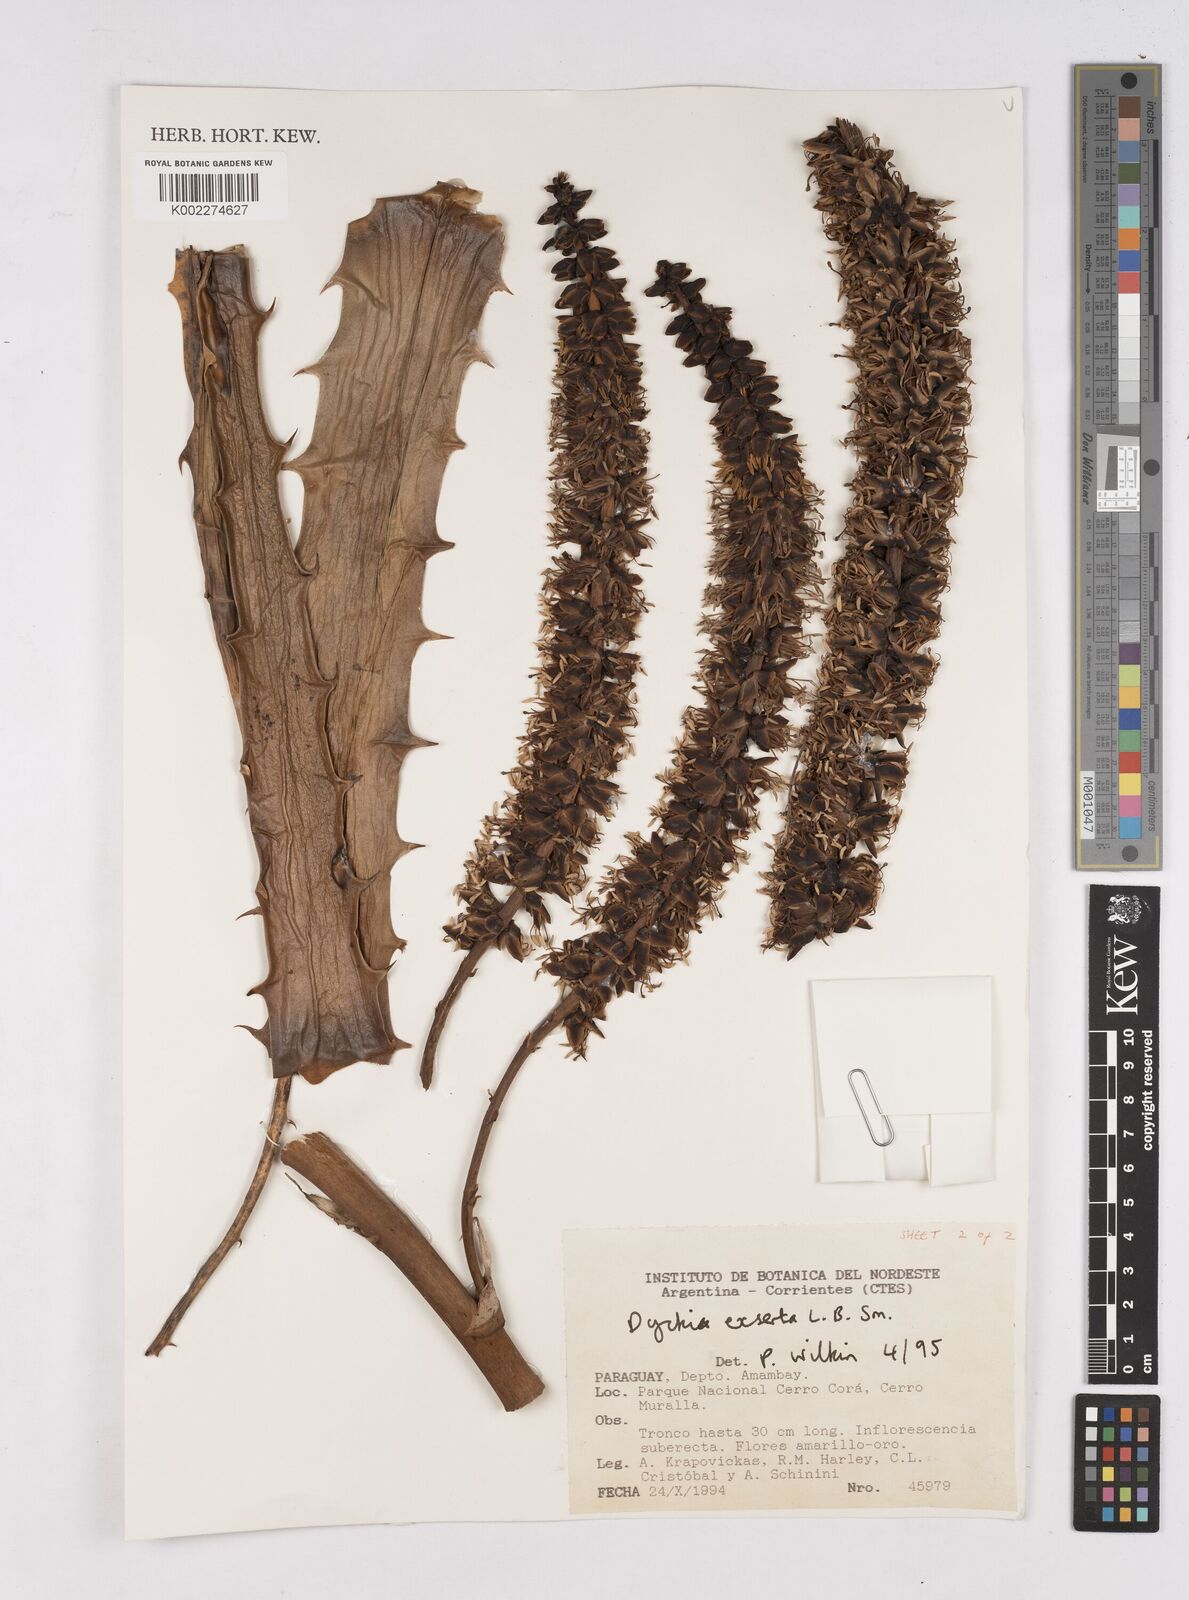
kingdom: Plantae
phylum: Tracheophyta
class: Liliopsida
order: Poales
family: Bromeliaceae
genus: Dyckia
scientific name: Dyckia exserta
